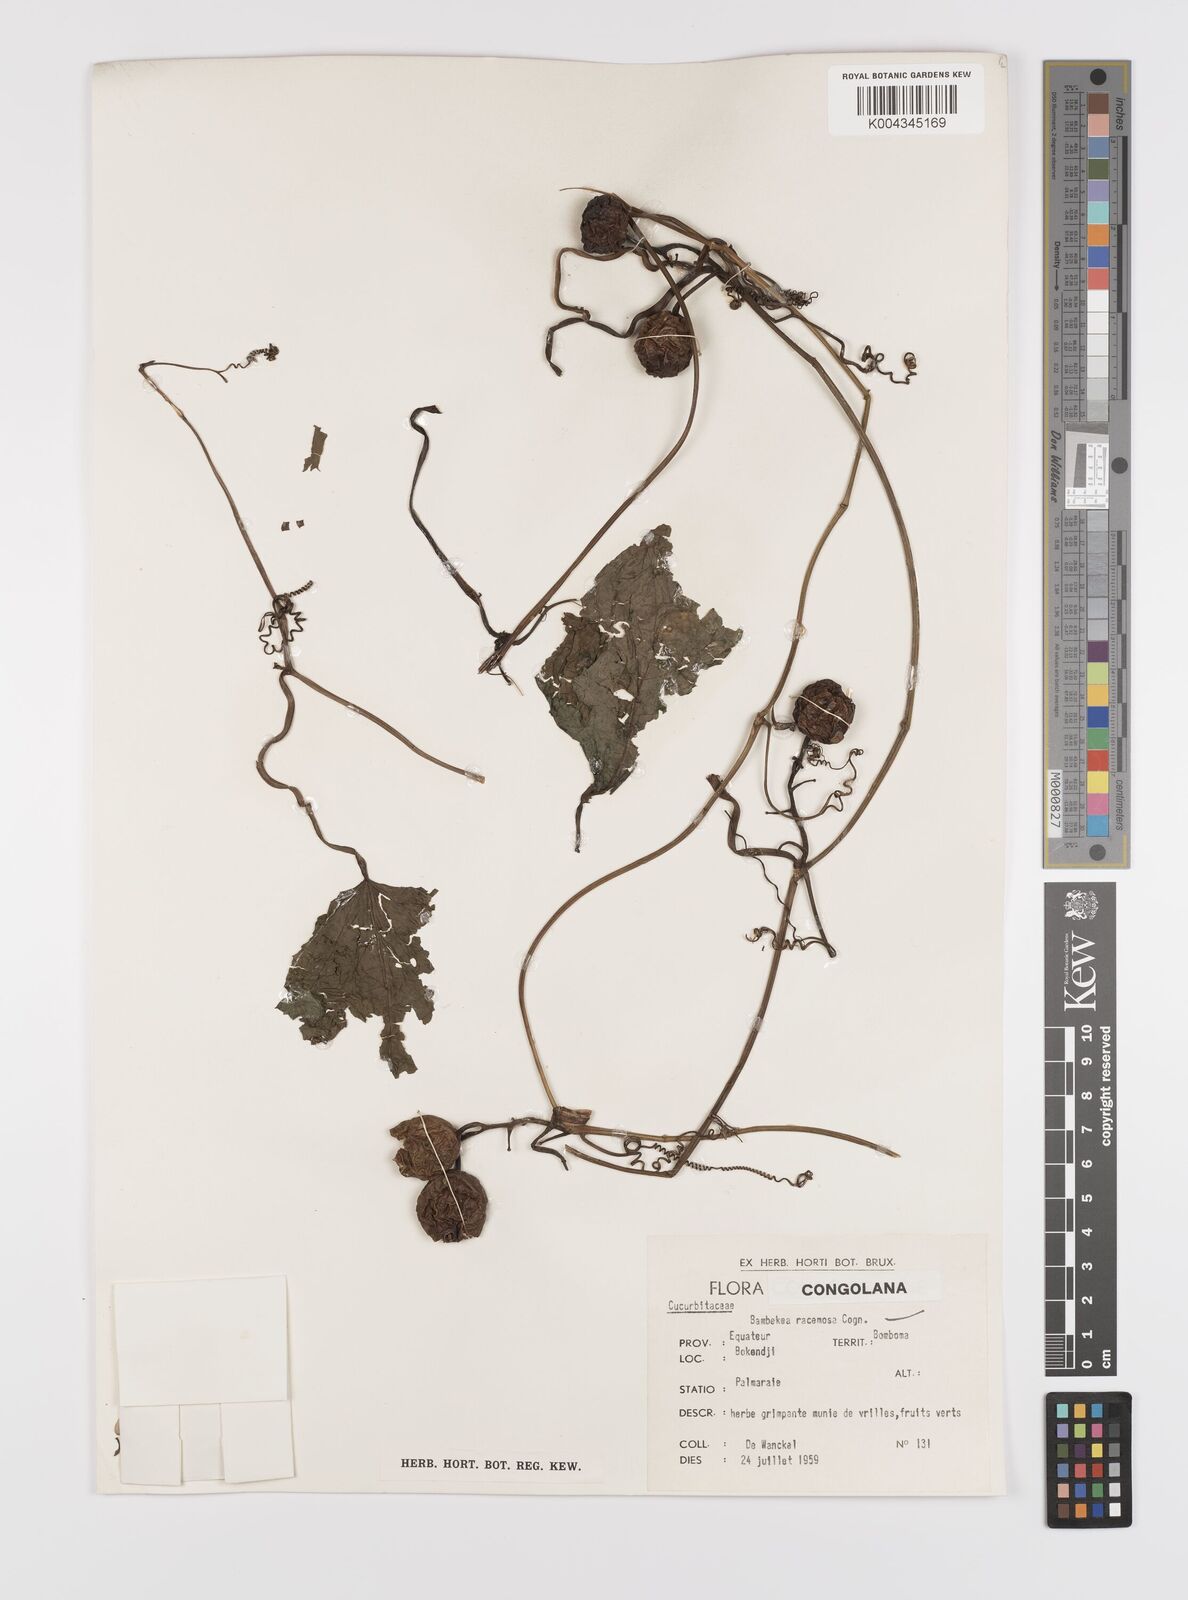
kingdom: Plantae
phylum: Tracheophyta
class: Magnoliopsida
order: Cucurbitales
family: Cucurbitaceae
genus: Bambekea
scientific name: Bambekea racemosa
